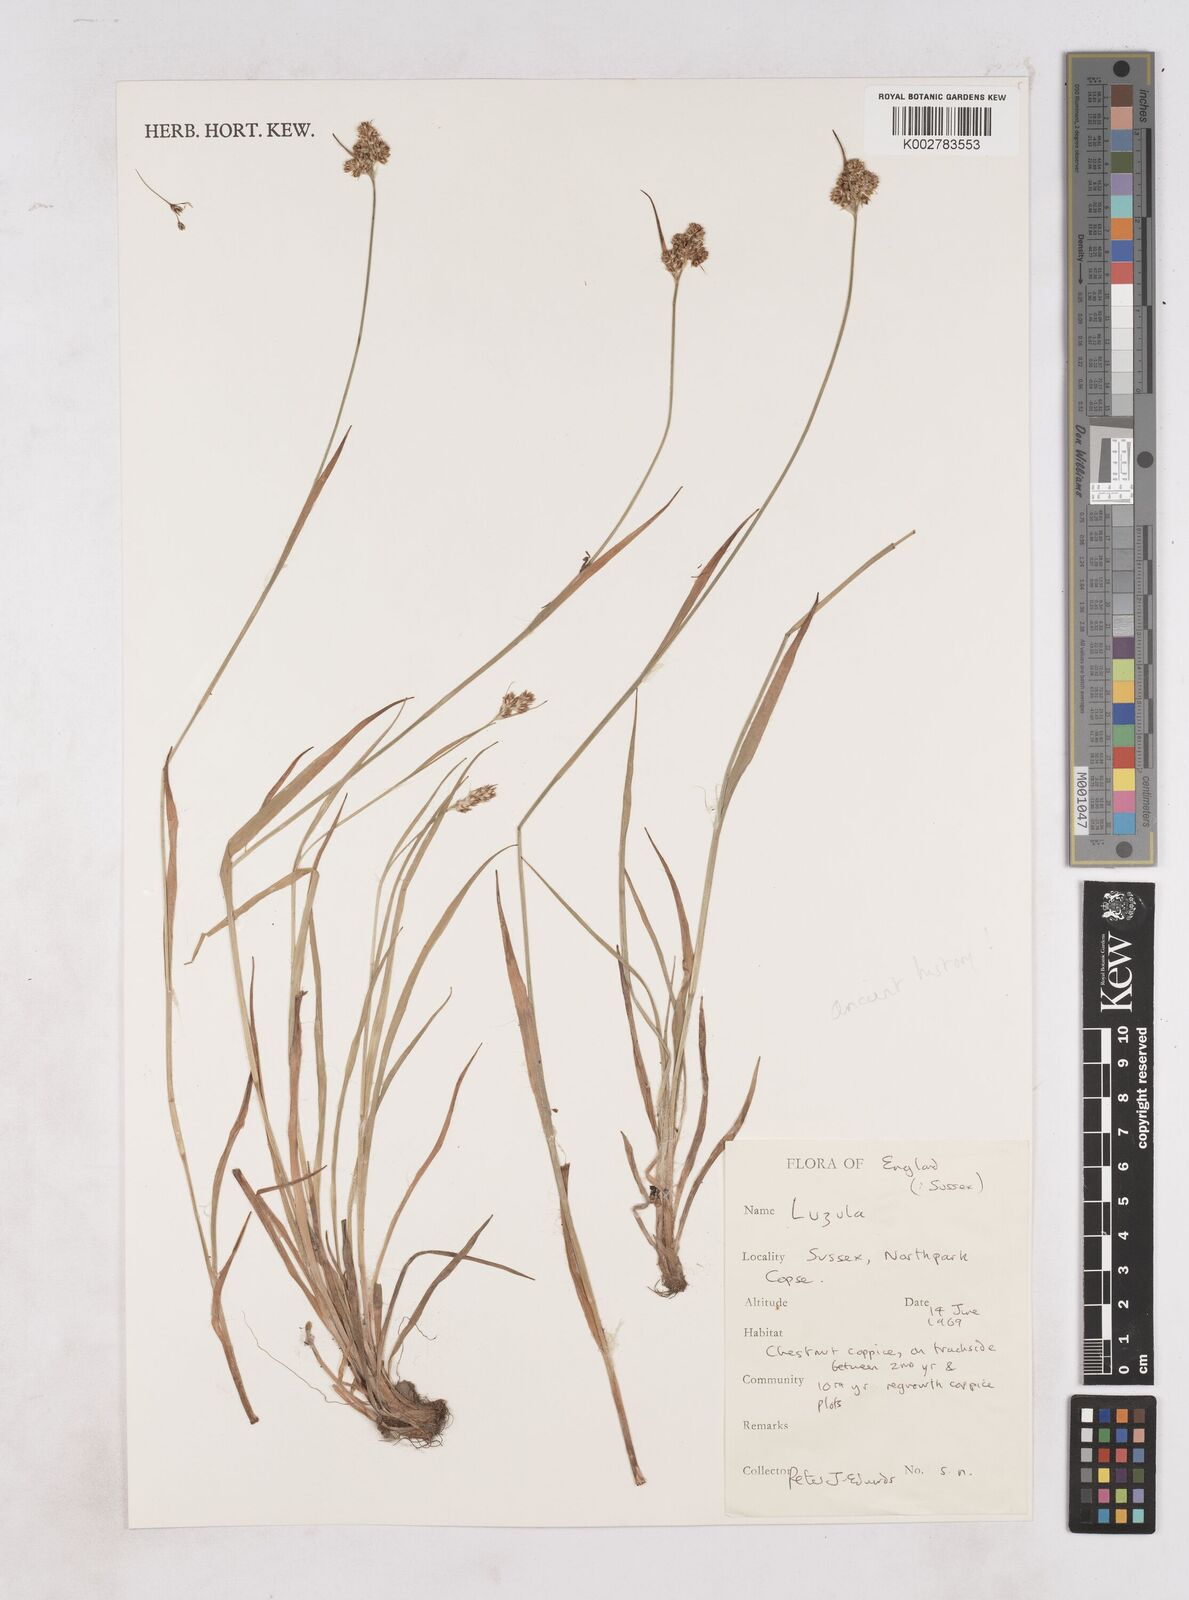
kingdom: Plantae
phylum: Tracheophyta
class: Liliopsida
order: Poales
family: Juncaceae
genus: Luzula
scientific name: Luzula
